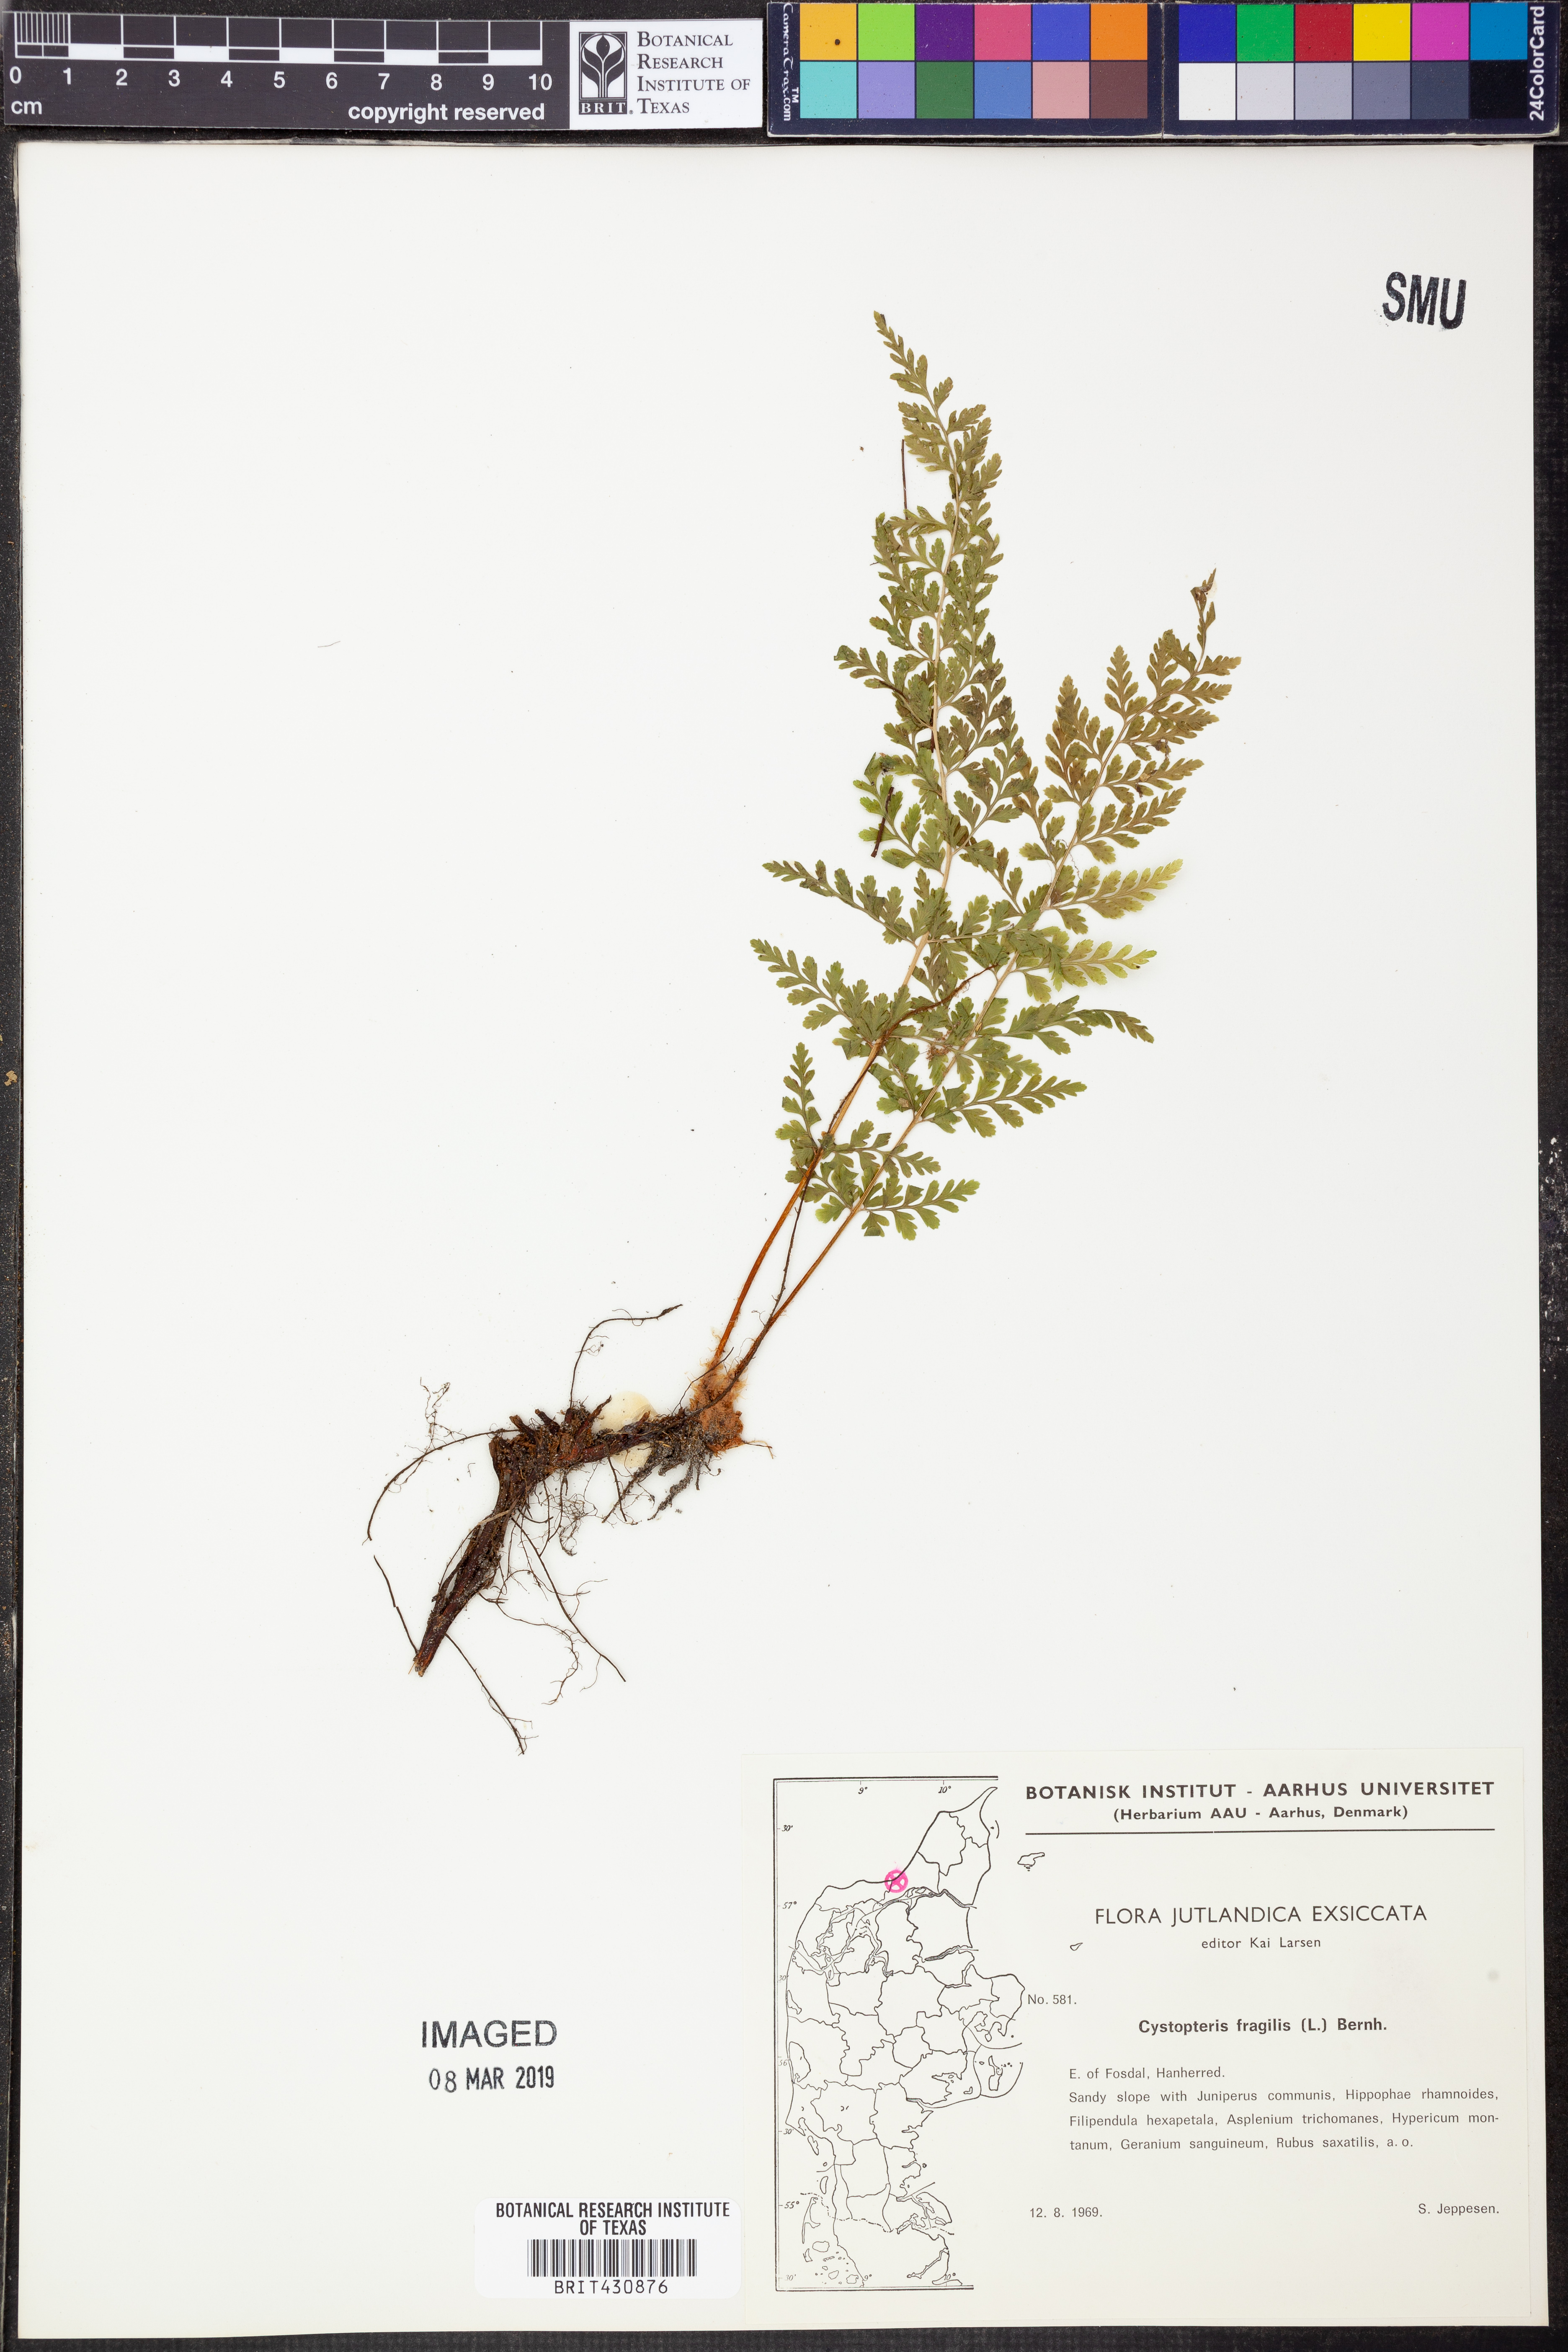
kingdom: Plantae
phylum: Tracheophyta
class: Polypodiopsida
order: Polypodiales
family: Cystopteridaceae
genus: Cystopteris
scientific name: Cystopteris fragilis
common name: Brittle bladder fern
